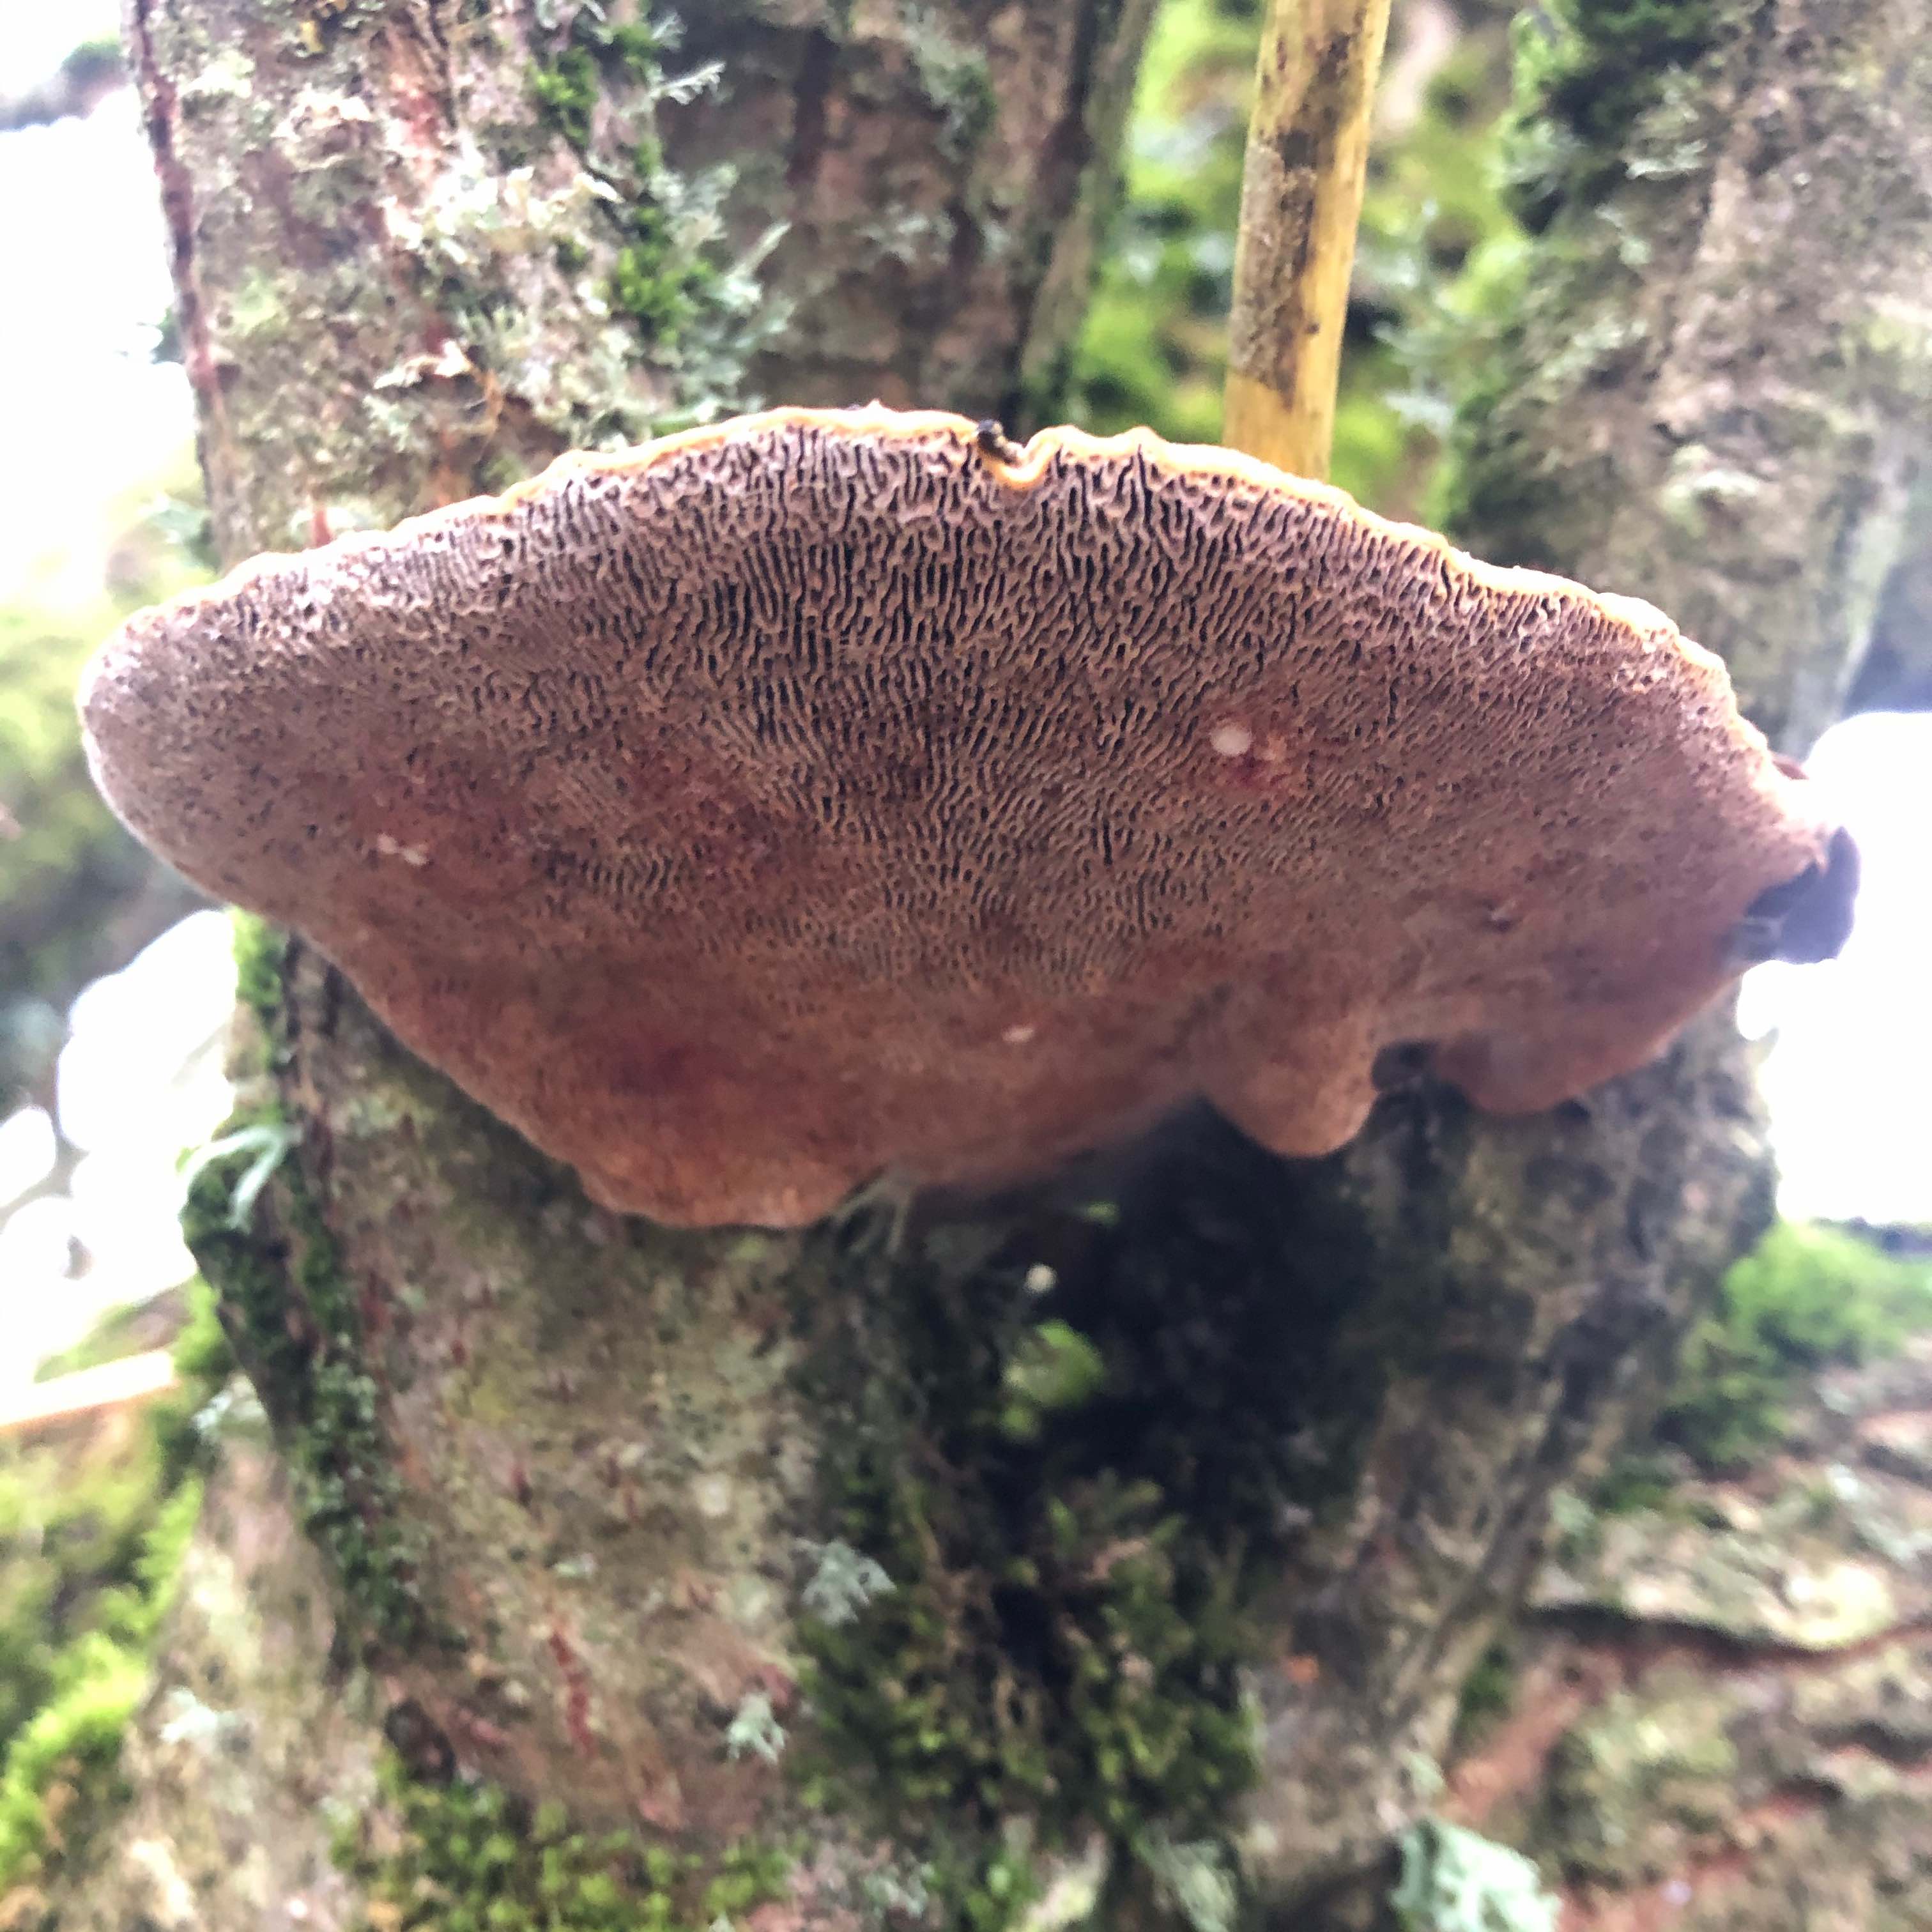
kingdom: Fungi
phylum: Basidiomycota
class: Agaricomycetes
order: Polyporales
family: Polyporaceae
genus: Daedaleopsis
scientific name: Daedaleopsis confragosa
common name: rødmende læderporesvamp
